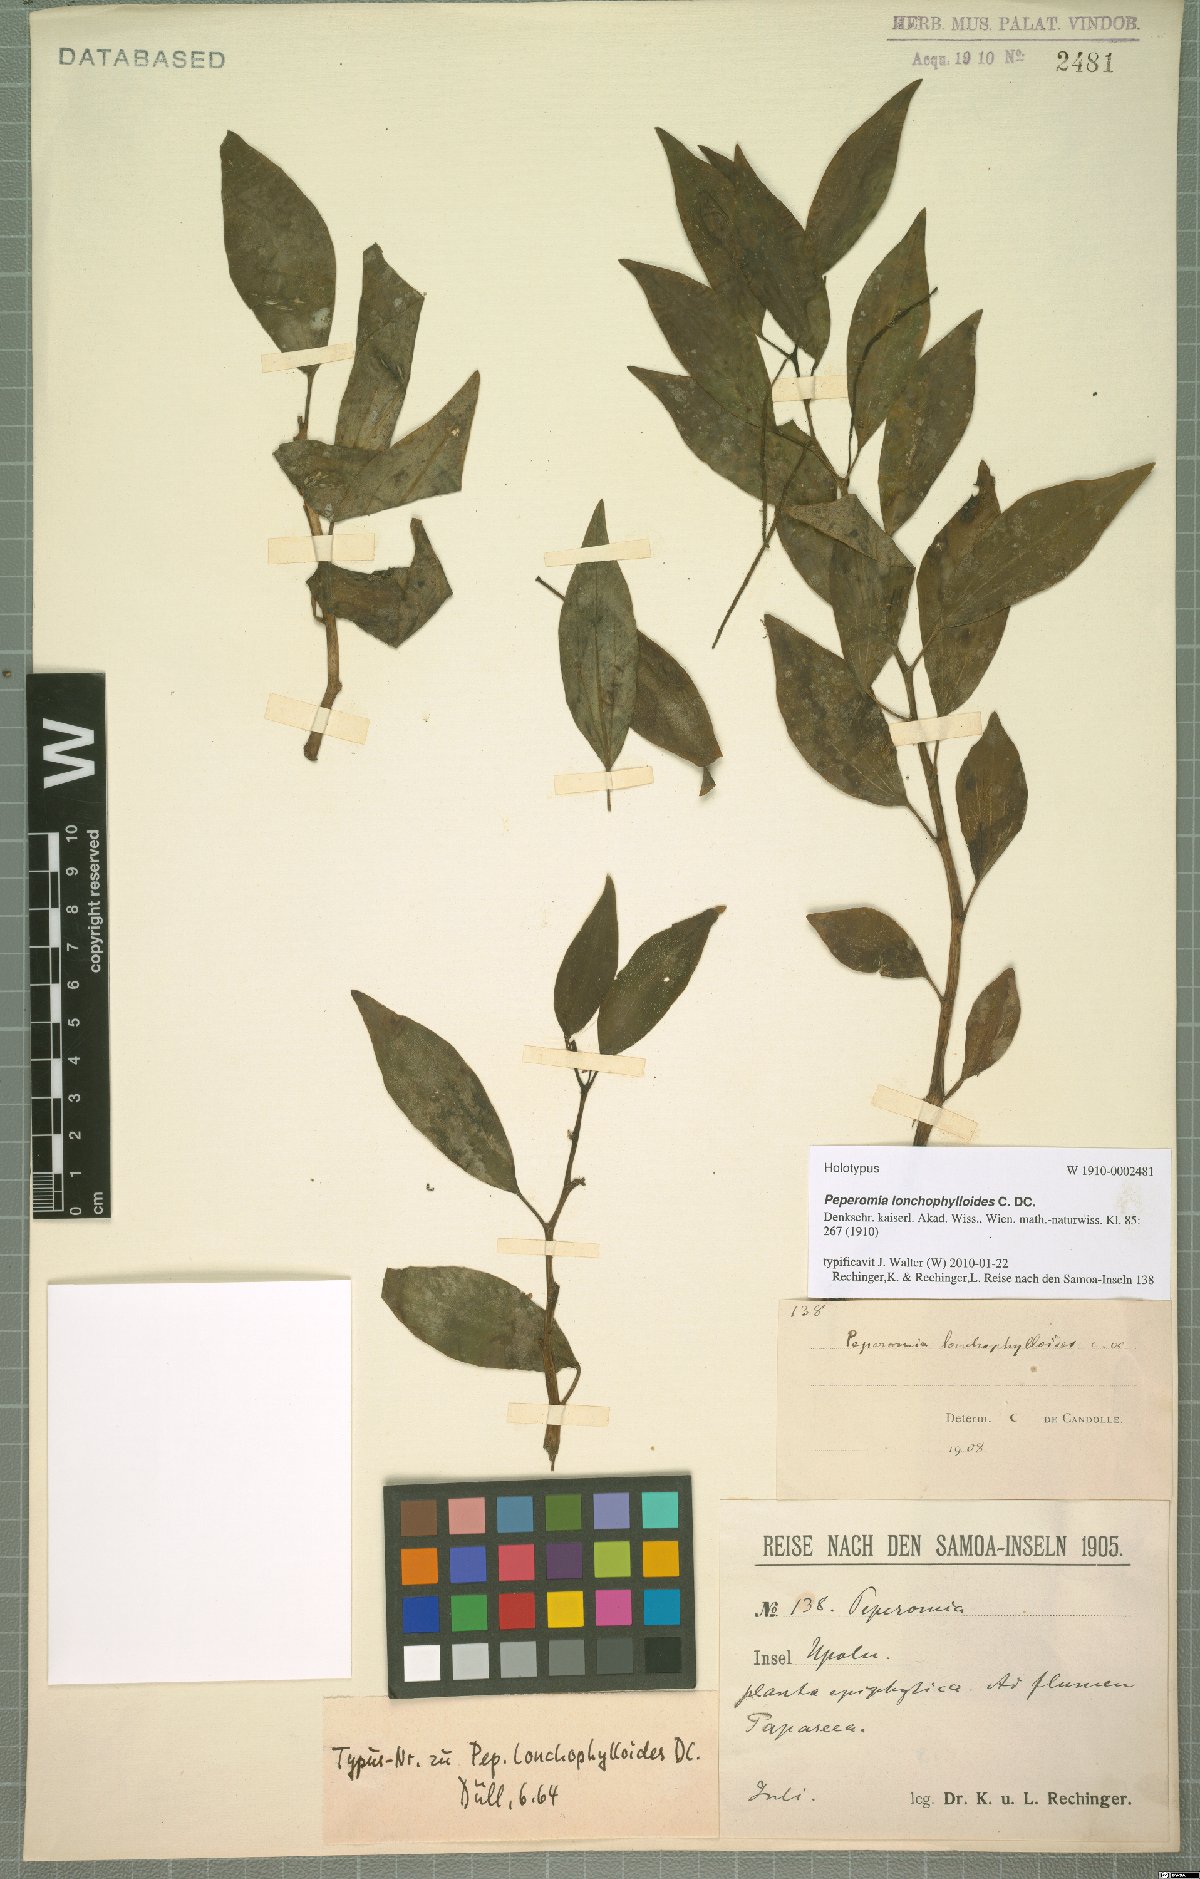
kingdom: Plantae
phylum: Tracheophyta
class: Magnoliopsida
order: Piperales
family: Piperaceae
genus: Peperomia
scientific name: Peperomia lonchophylloides
